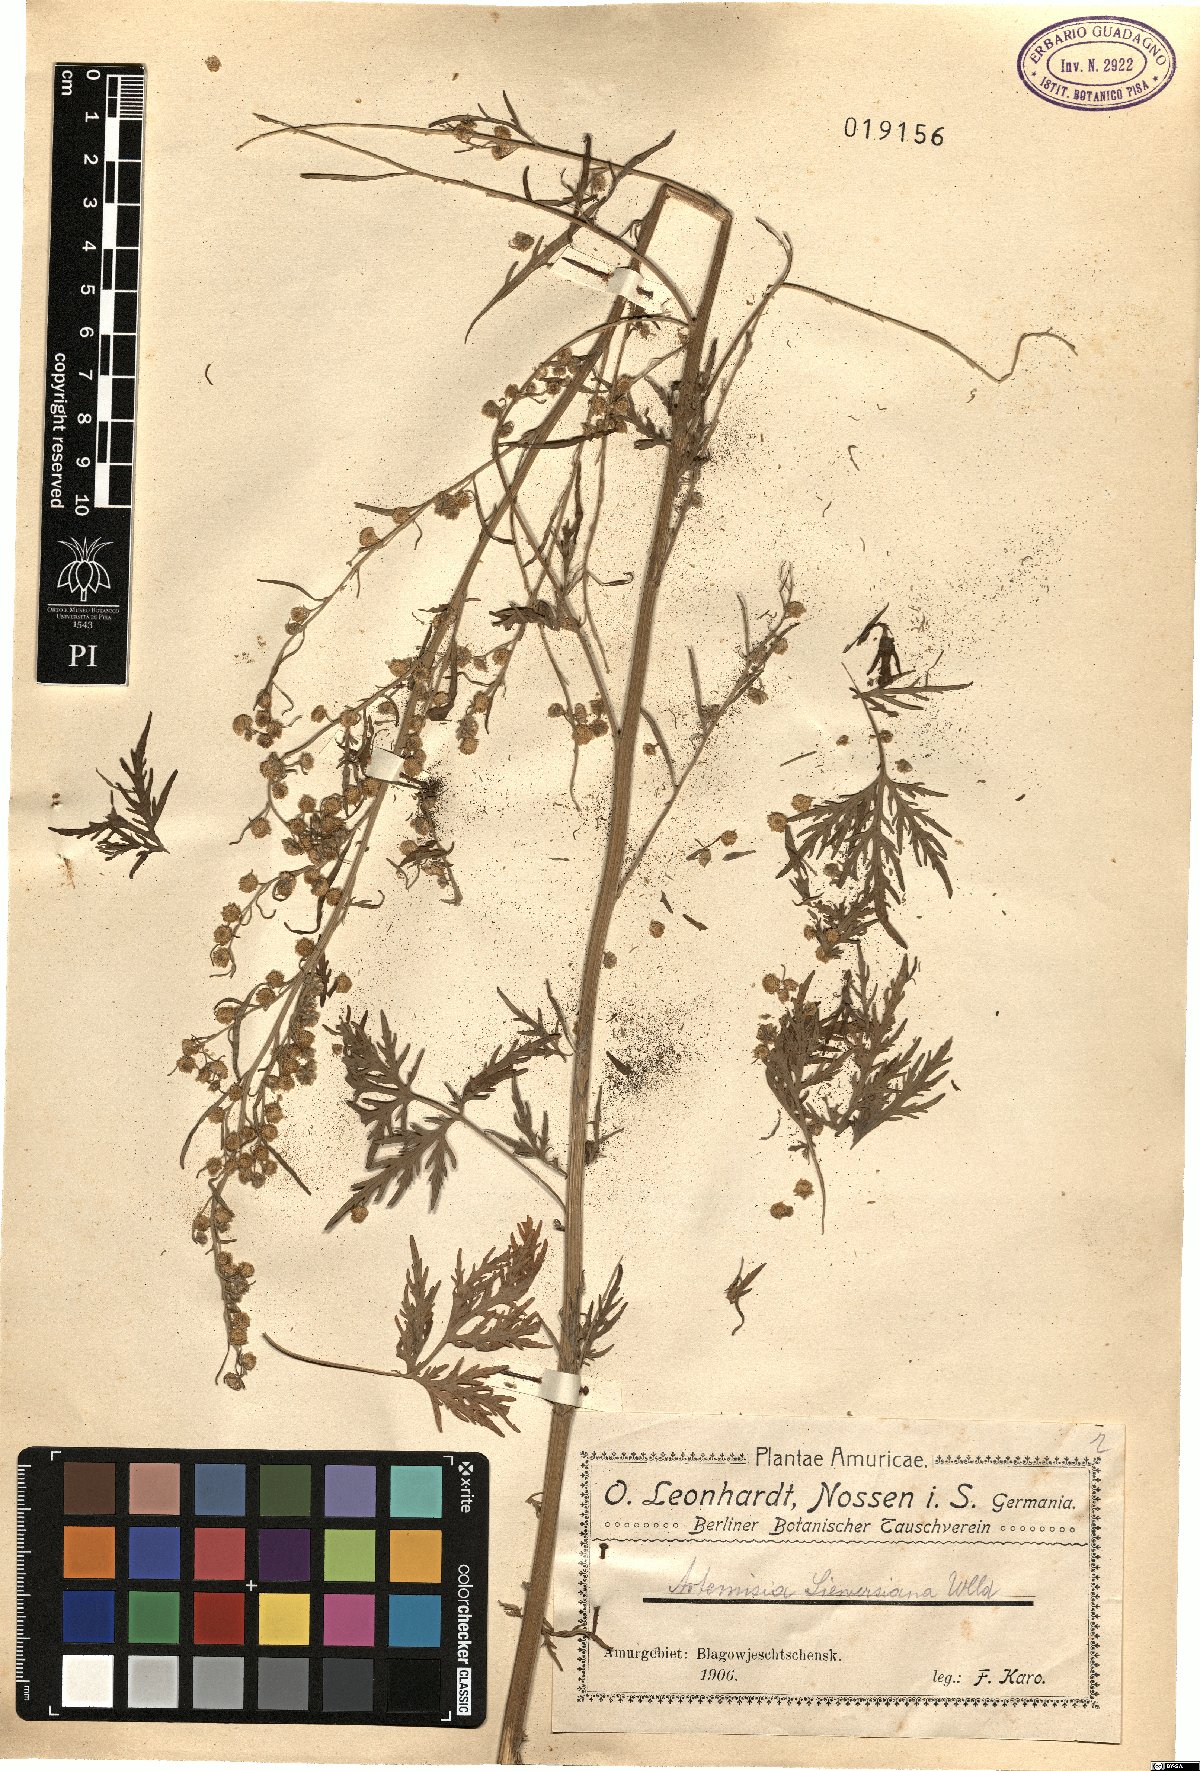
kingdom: Plantae
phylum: Tracheophyta
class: Magnoliopsida
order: Asterales
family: Asteraceae
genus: Artemisia
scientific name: Artemisia sieversiana
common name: Sieversian wormwood
